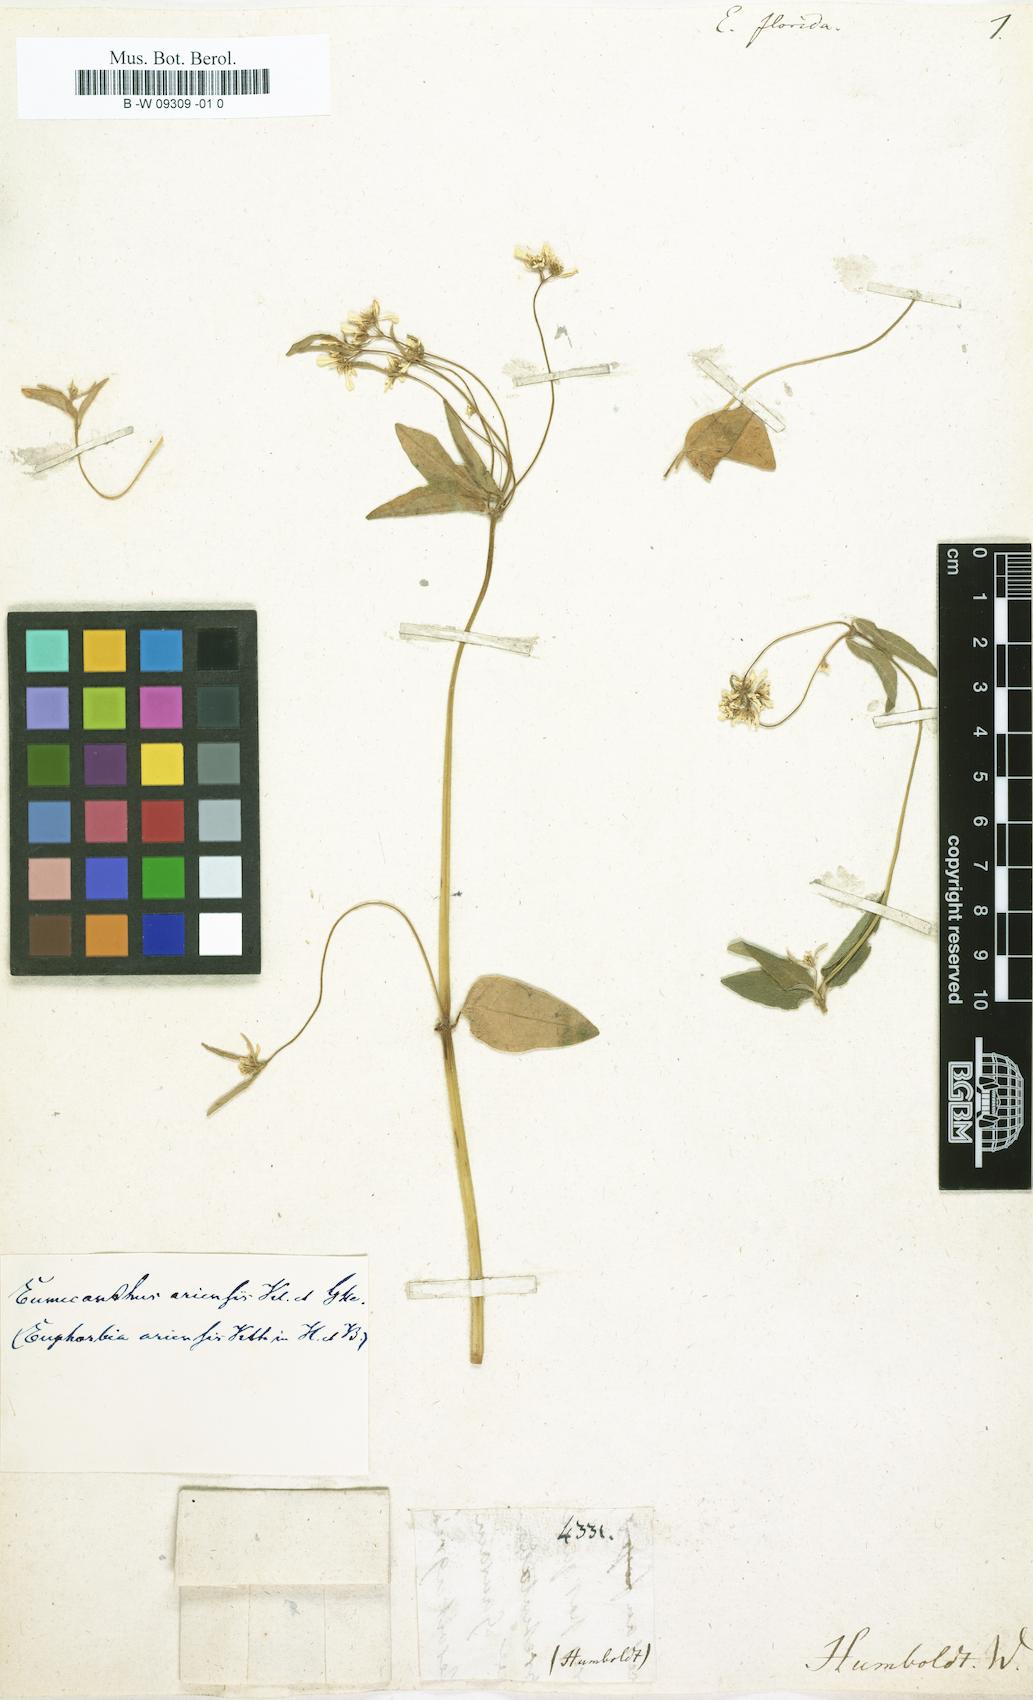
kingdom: Plantae
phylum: Tracheophyta
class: Magnoliopsida
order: Malpighiales
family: Euphorbiaceae
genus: Euphorbia
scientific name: Euphorbia florida
